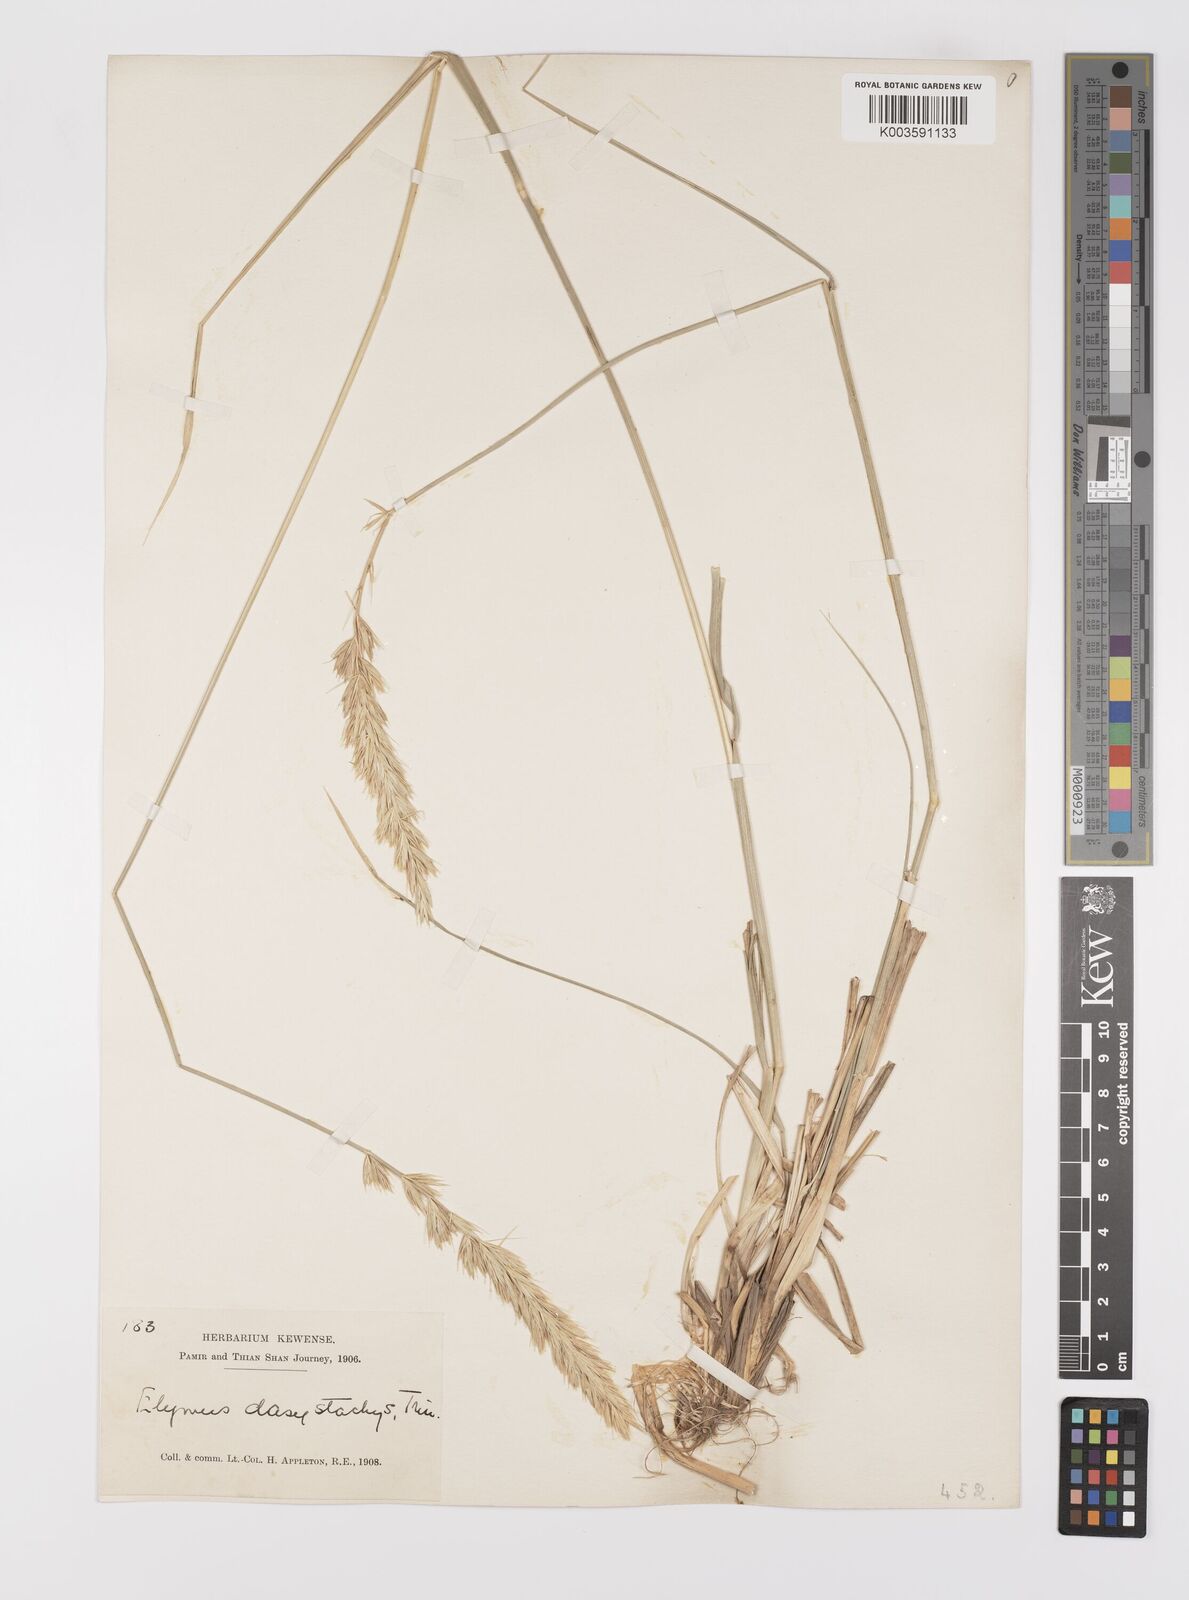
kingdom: Plantae
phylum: Tracheophyta
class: Liliopsida
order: Poales
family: Poaceae
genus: Leymus
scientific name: Leymus secalinus
